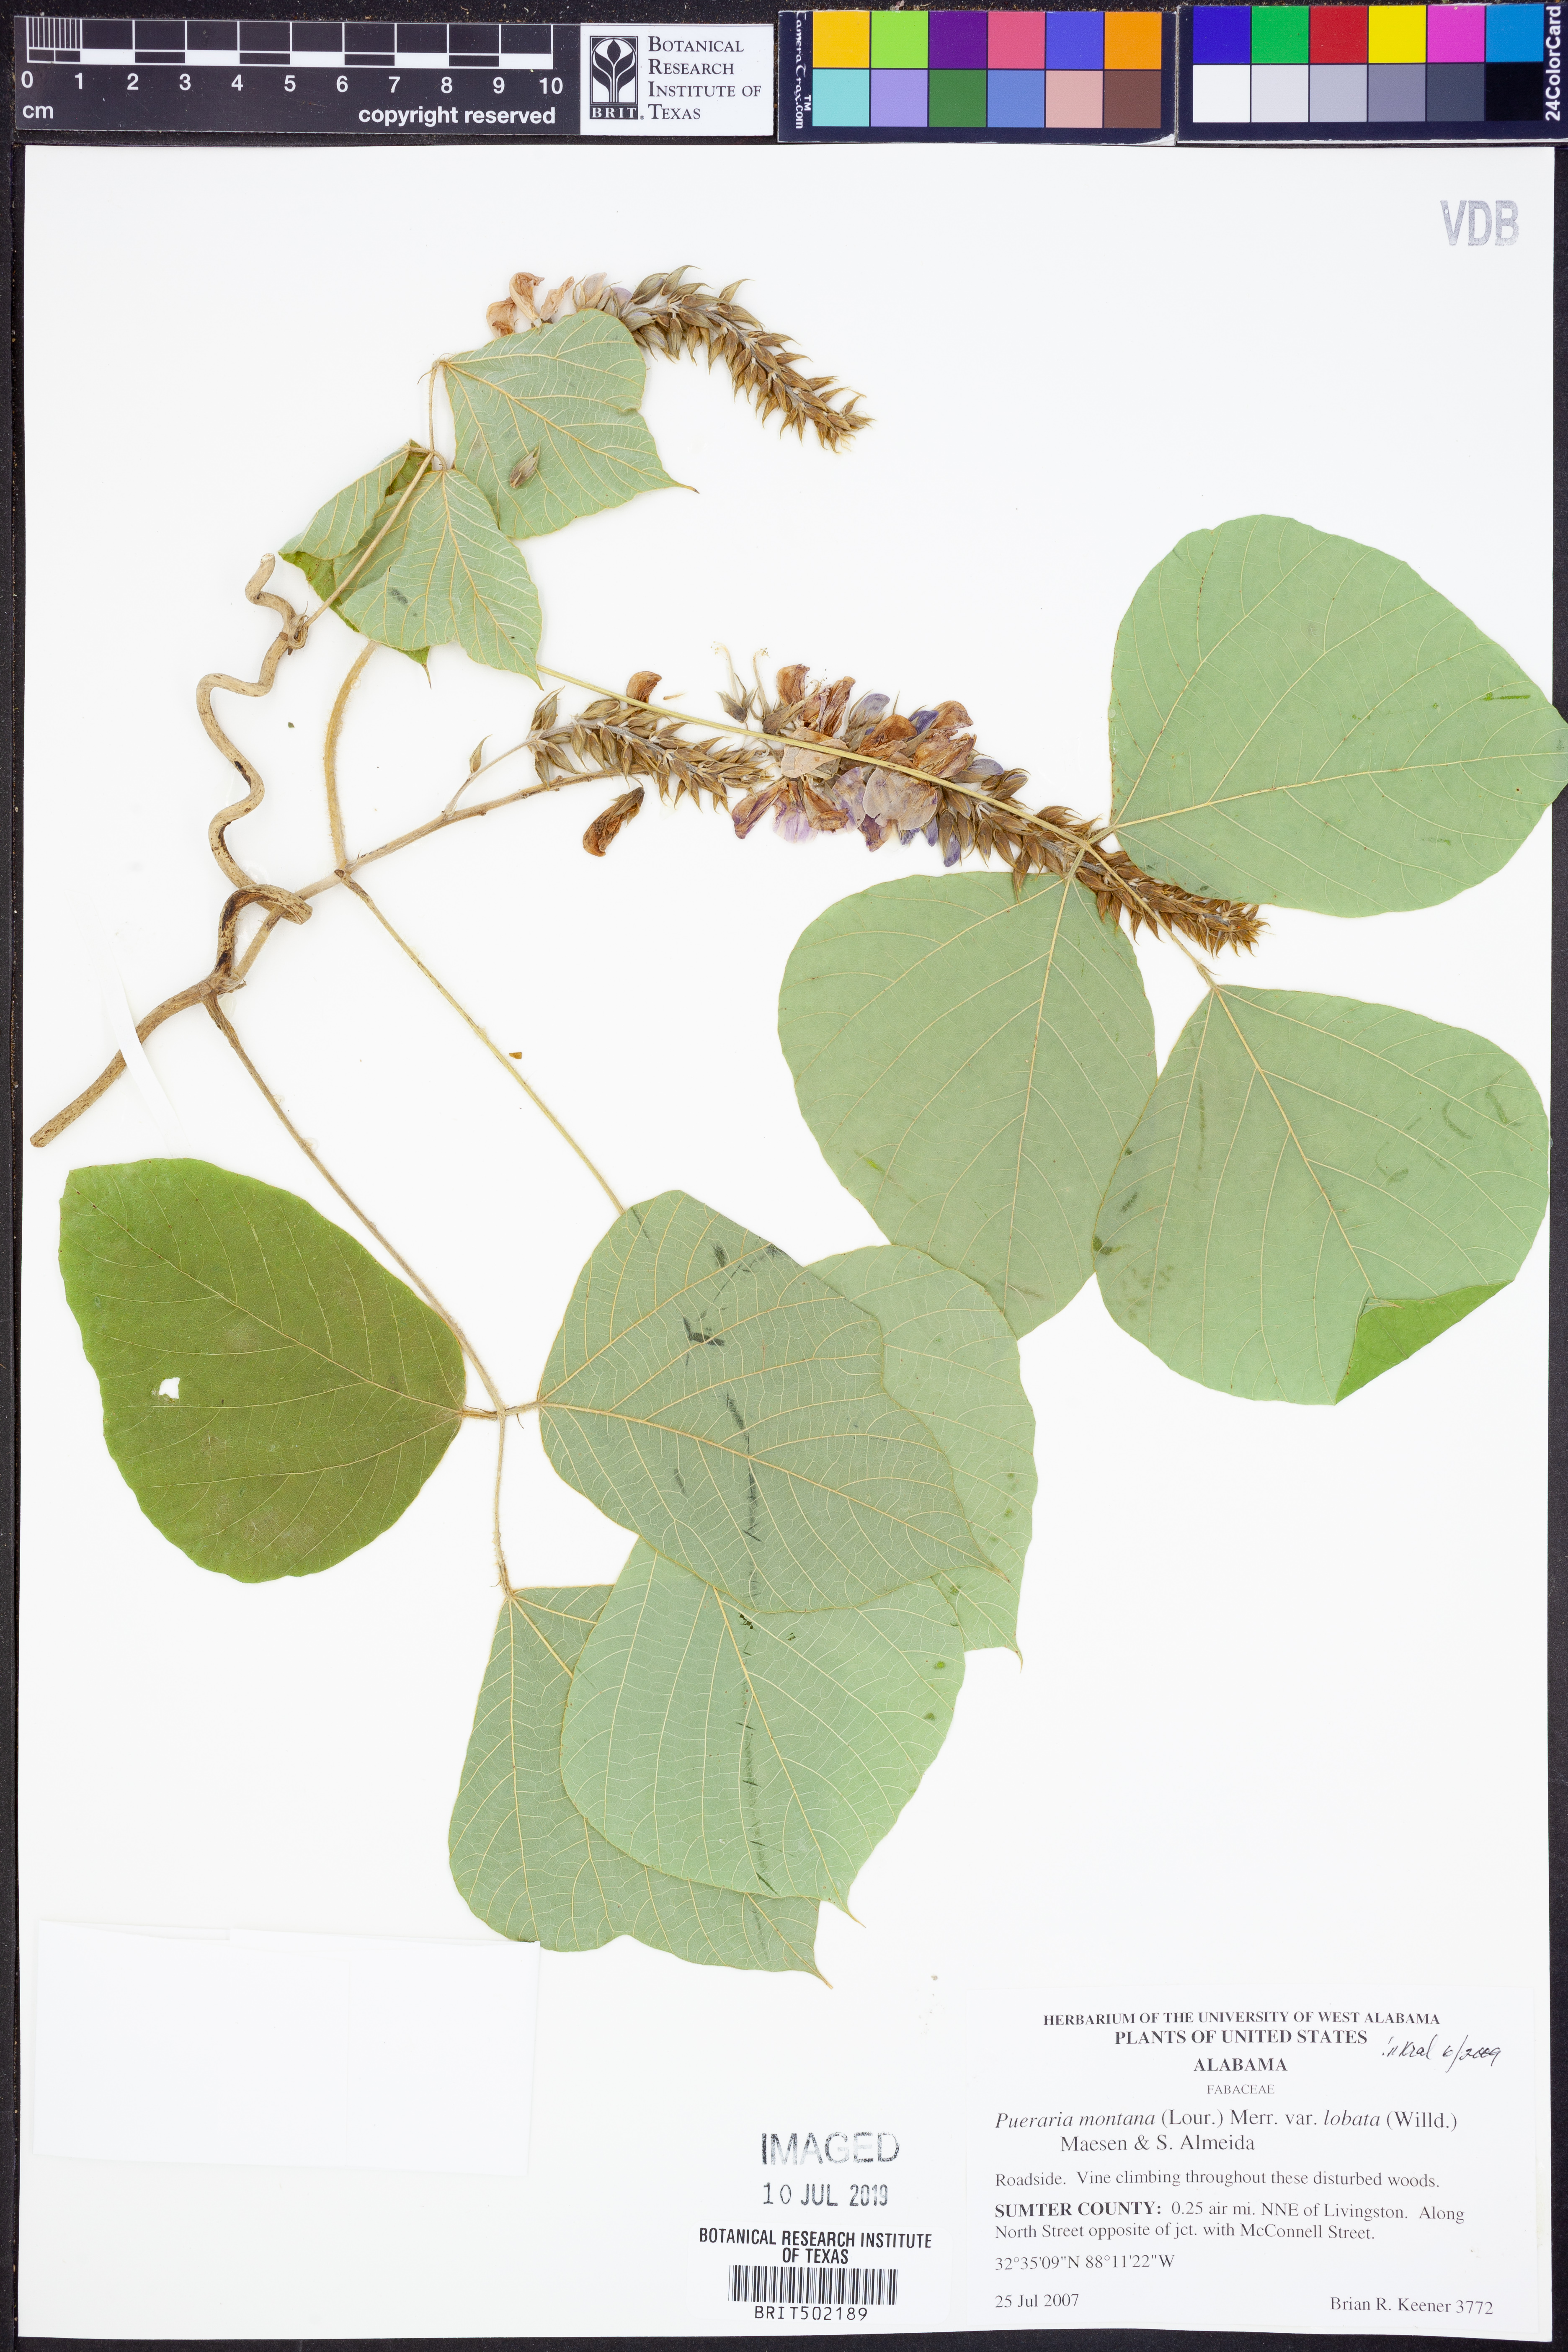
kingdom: Plantae
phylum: Tracheophyta
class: Magnoliopsida
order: Fabales
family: Fabaceae
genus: Pueraria
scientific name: Pueraria montana
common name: Kudzu
